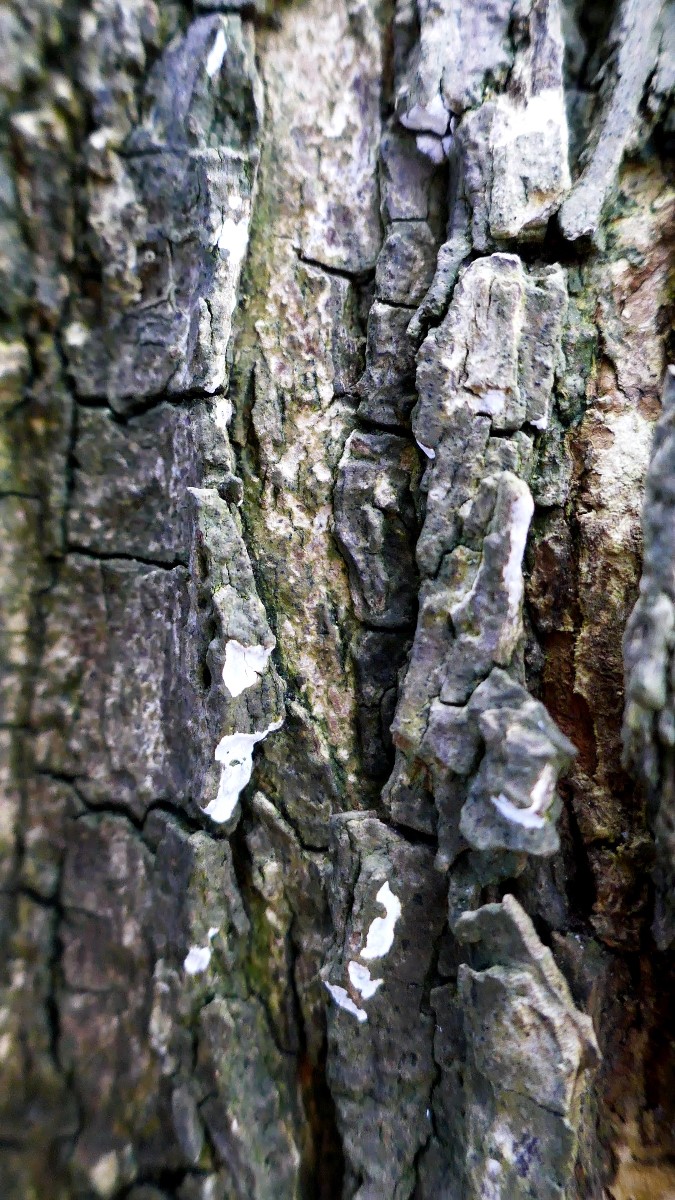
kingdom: Fungi
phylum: Basidiomycota
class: Agaricomycetes
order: Agaricales
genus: Dendrothele
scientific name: Dendrothele acerina
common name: navr-kalkplet
